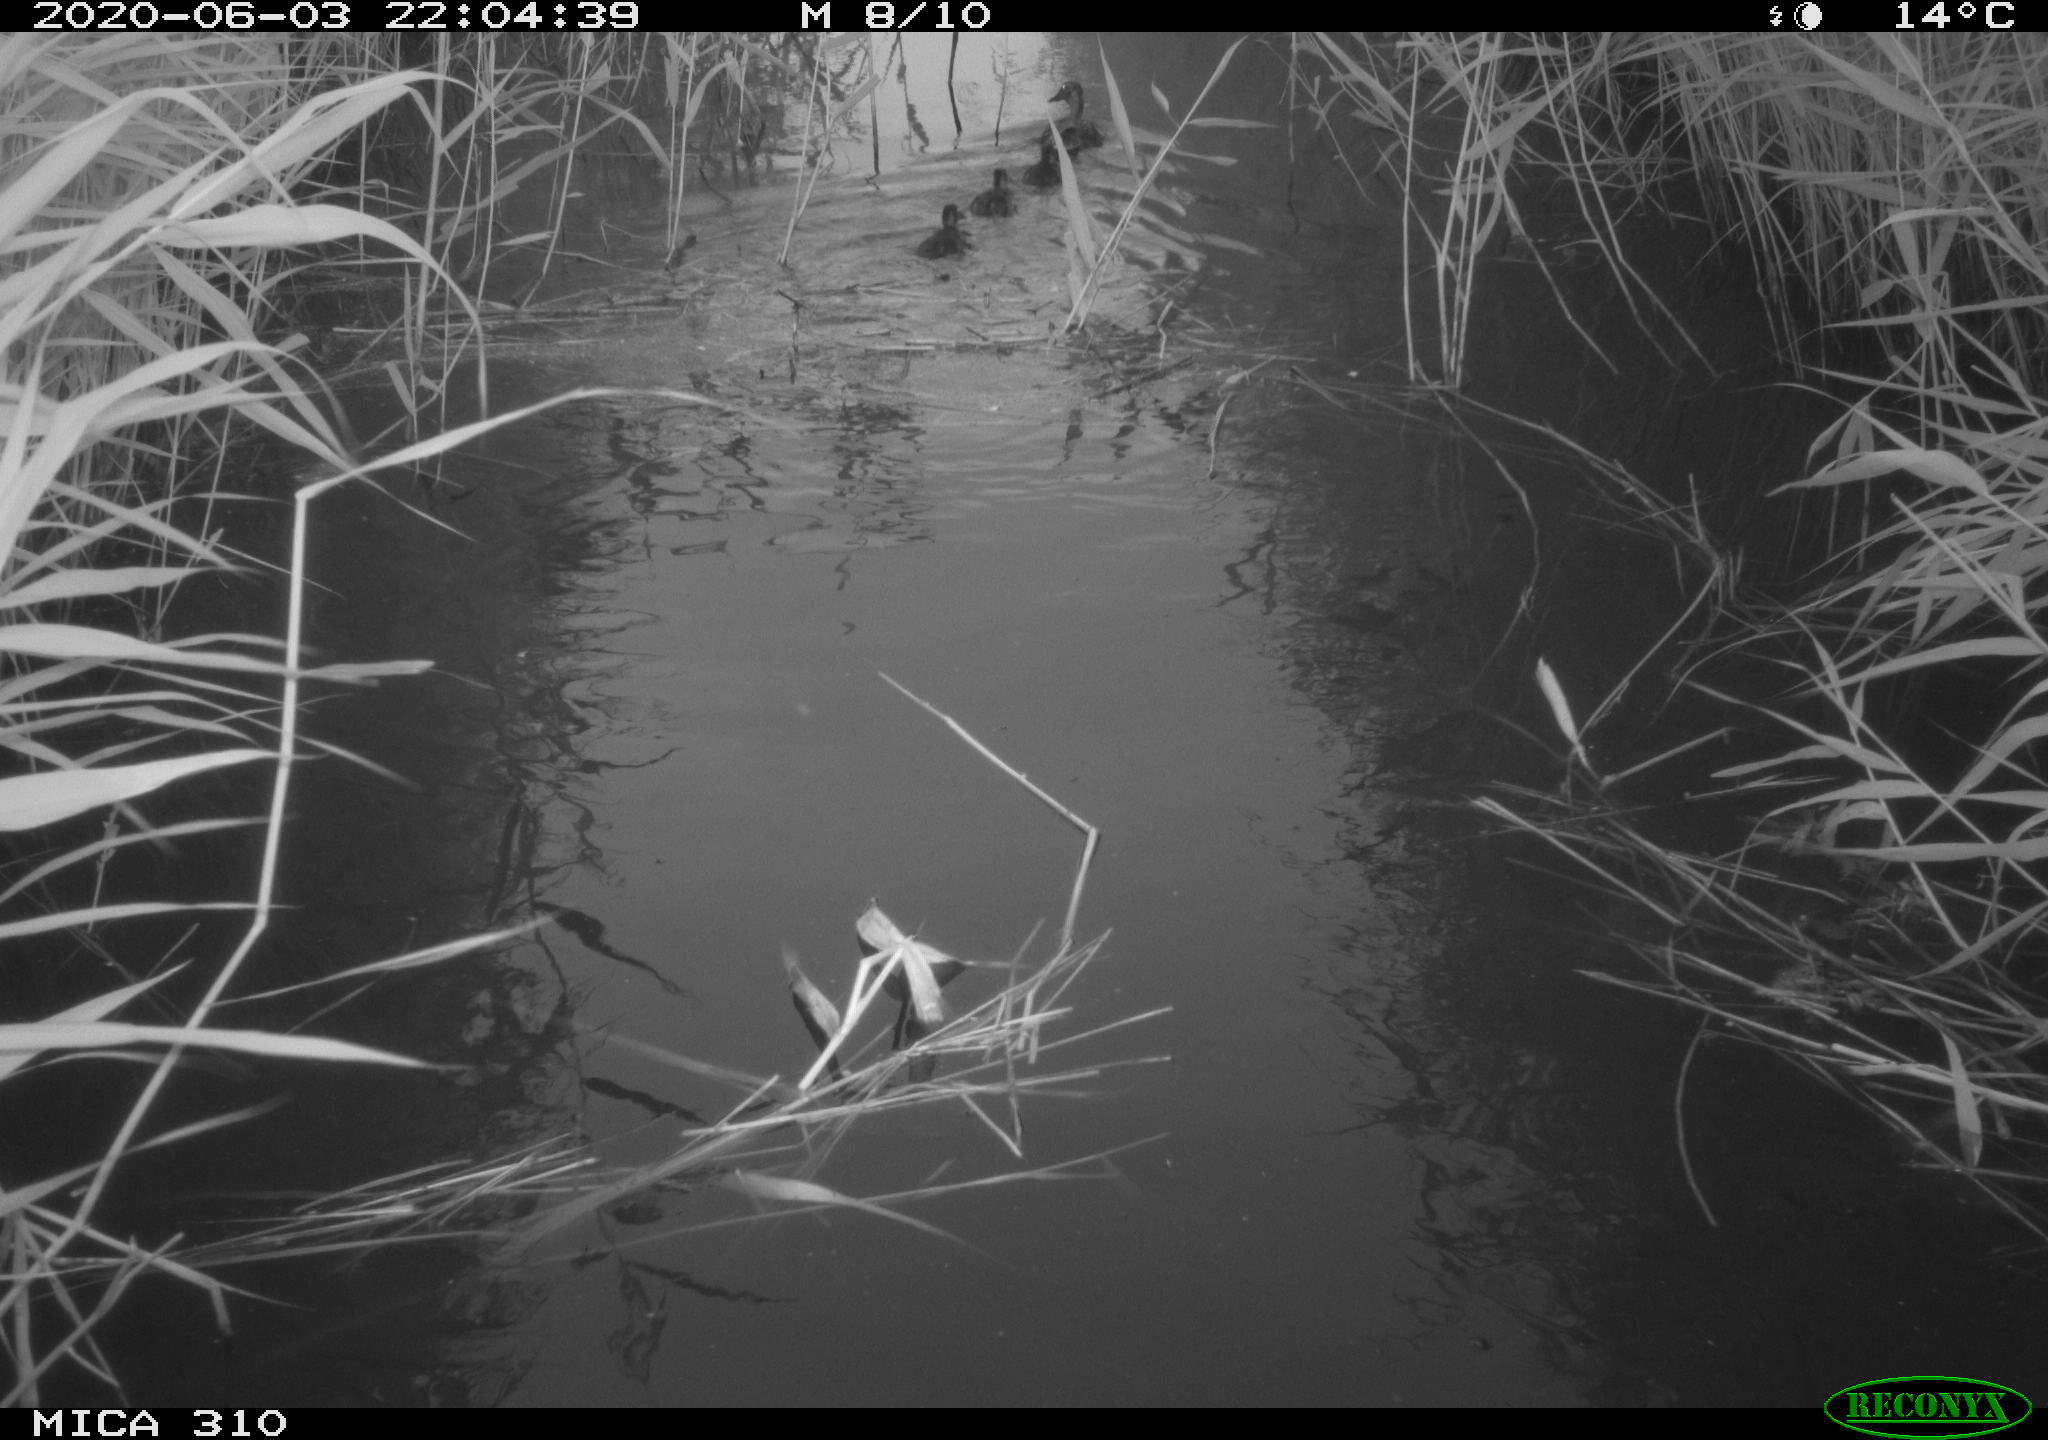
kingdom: Animalia
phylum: Chordata
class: Aves
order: Anseriformes
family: Anatidae
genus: Anas
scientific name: Anas platyrhynchos
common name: Mallard
